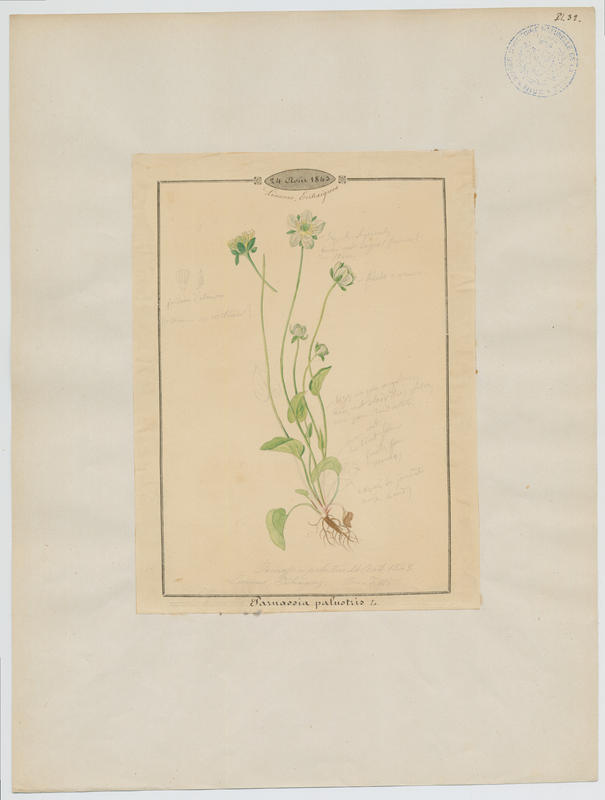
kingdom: Plantae
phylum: Tracheophyta
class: Magnoliopsida
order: Celastrales
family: Parnassiaceae
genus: Parnassia
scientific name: Parnassia palustris
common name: Grass-of-parnassus
